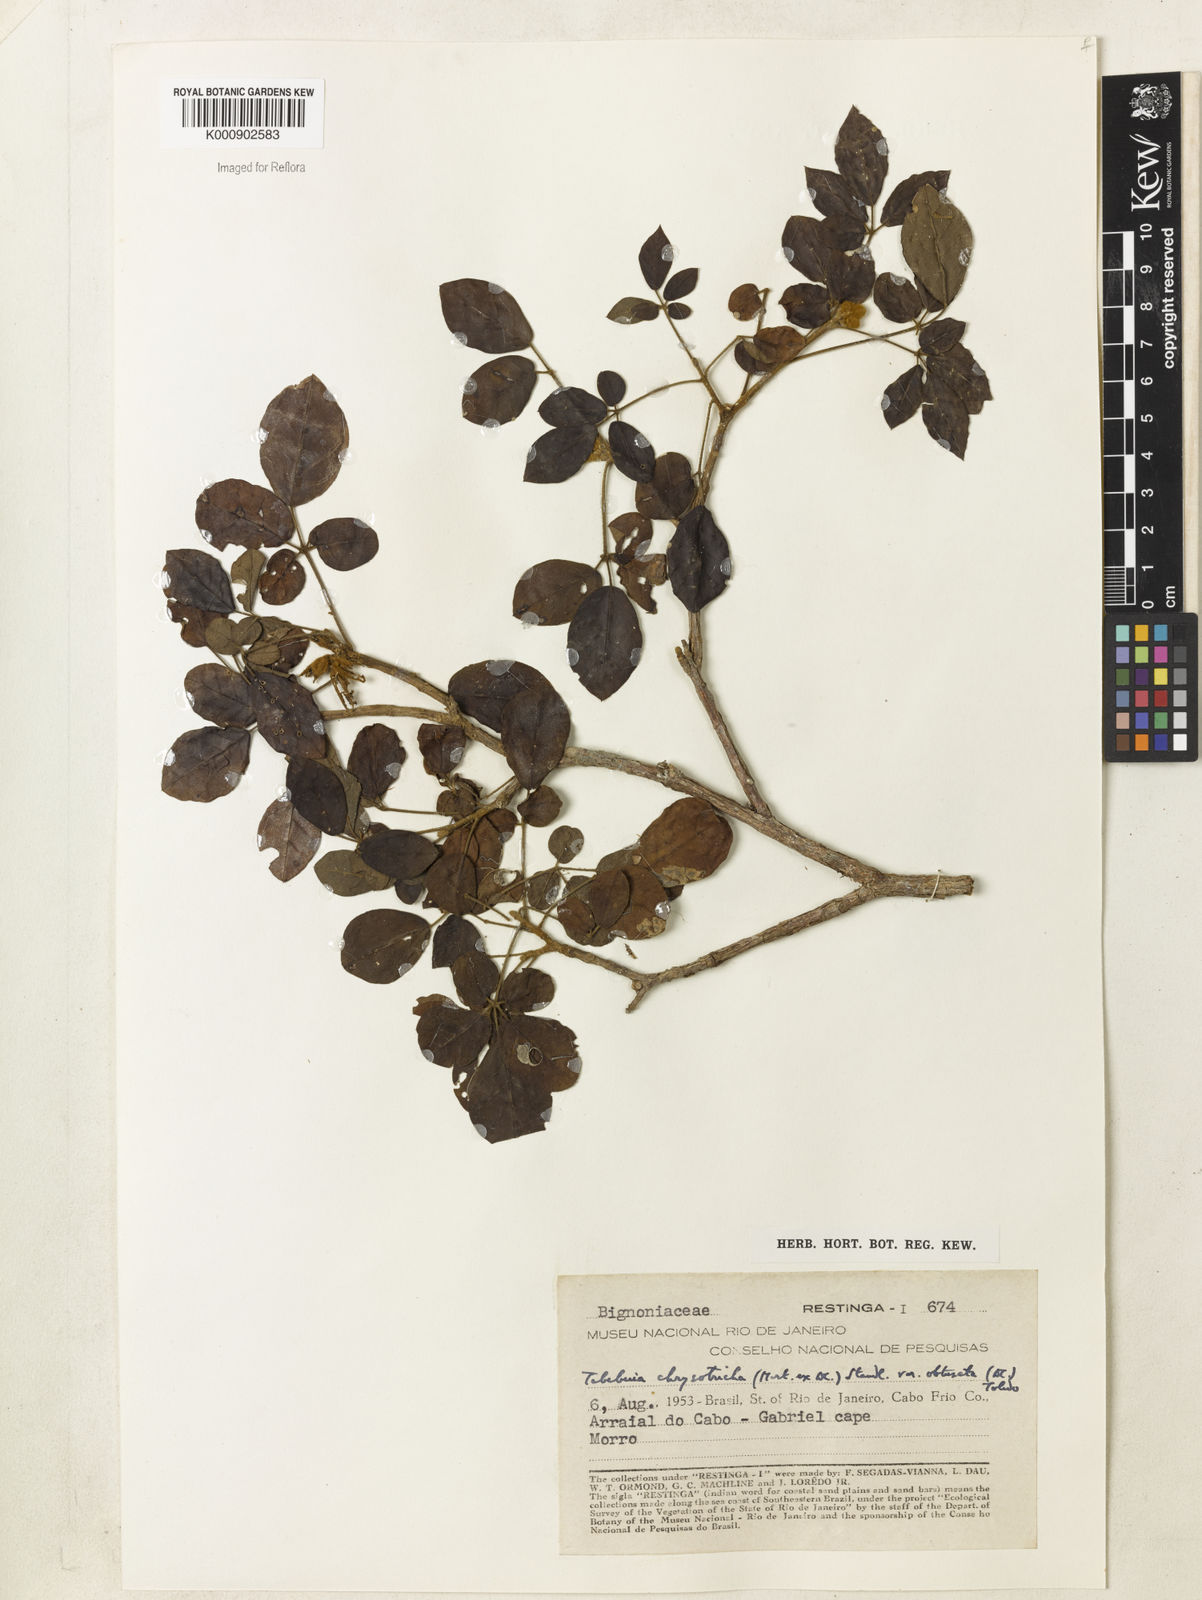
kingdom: Plantae
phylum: Tracheophyta
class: Magnoliopsida
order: Lamiales
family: Bignoniaceae
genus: Handroanthus
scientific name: Handroanthus chrysotrichus
